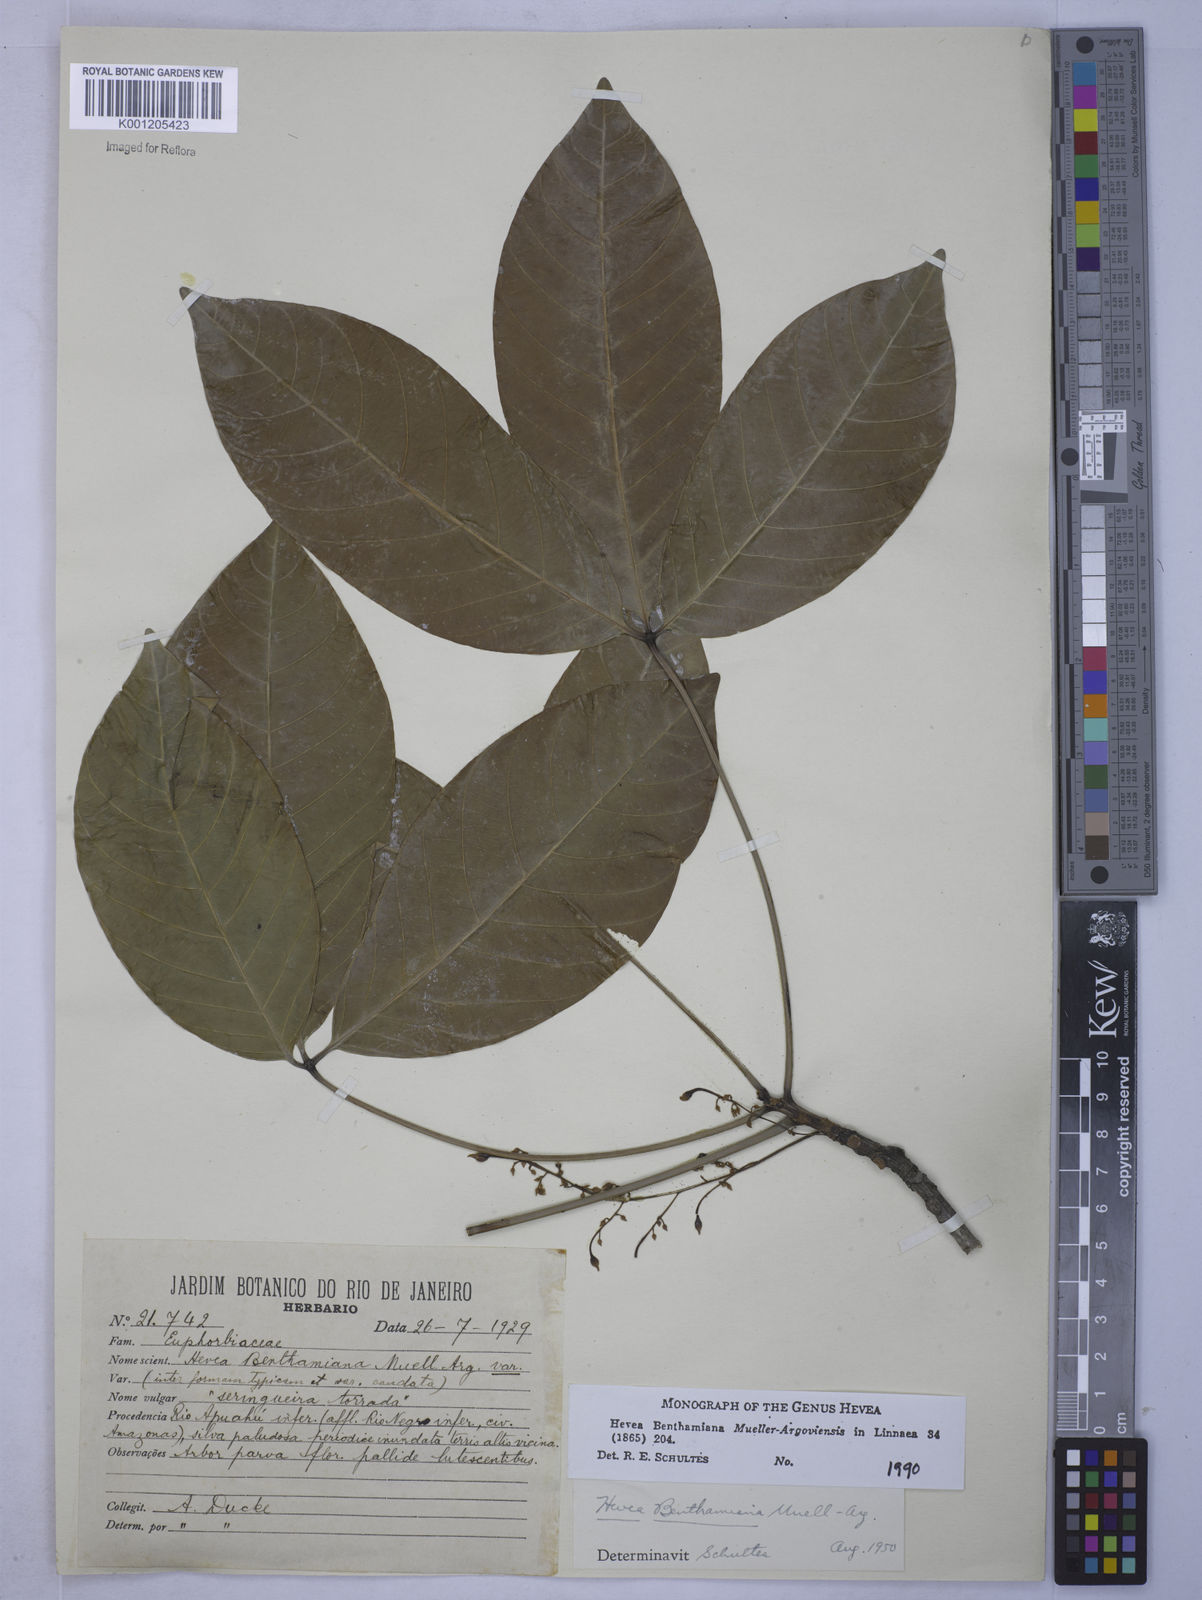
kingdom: Plantae
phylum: Tracheophyta
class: Magnoliopsida
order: Malpighiales
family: Euphorbiaceae
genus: Hevea
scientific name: Hevea benthamiana
